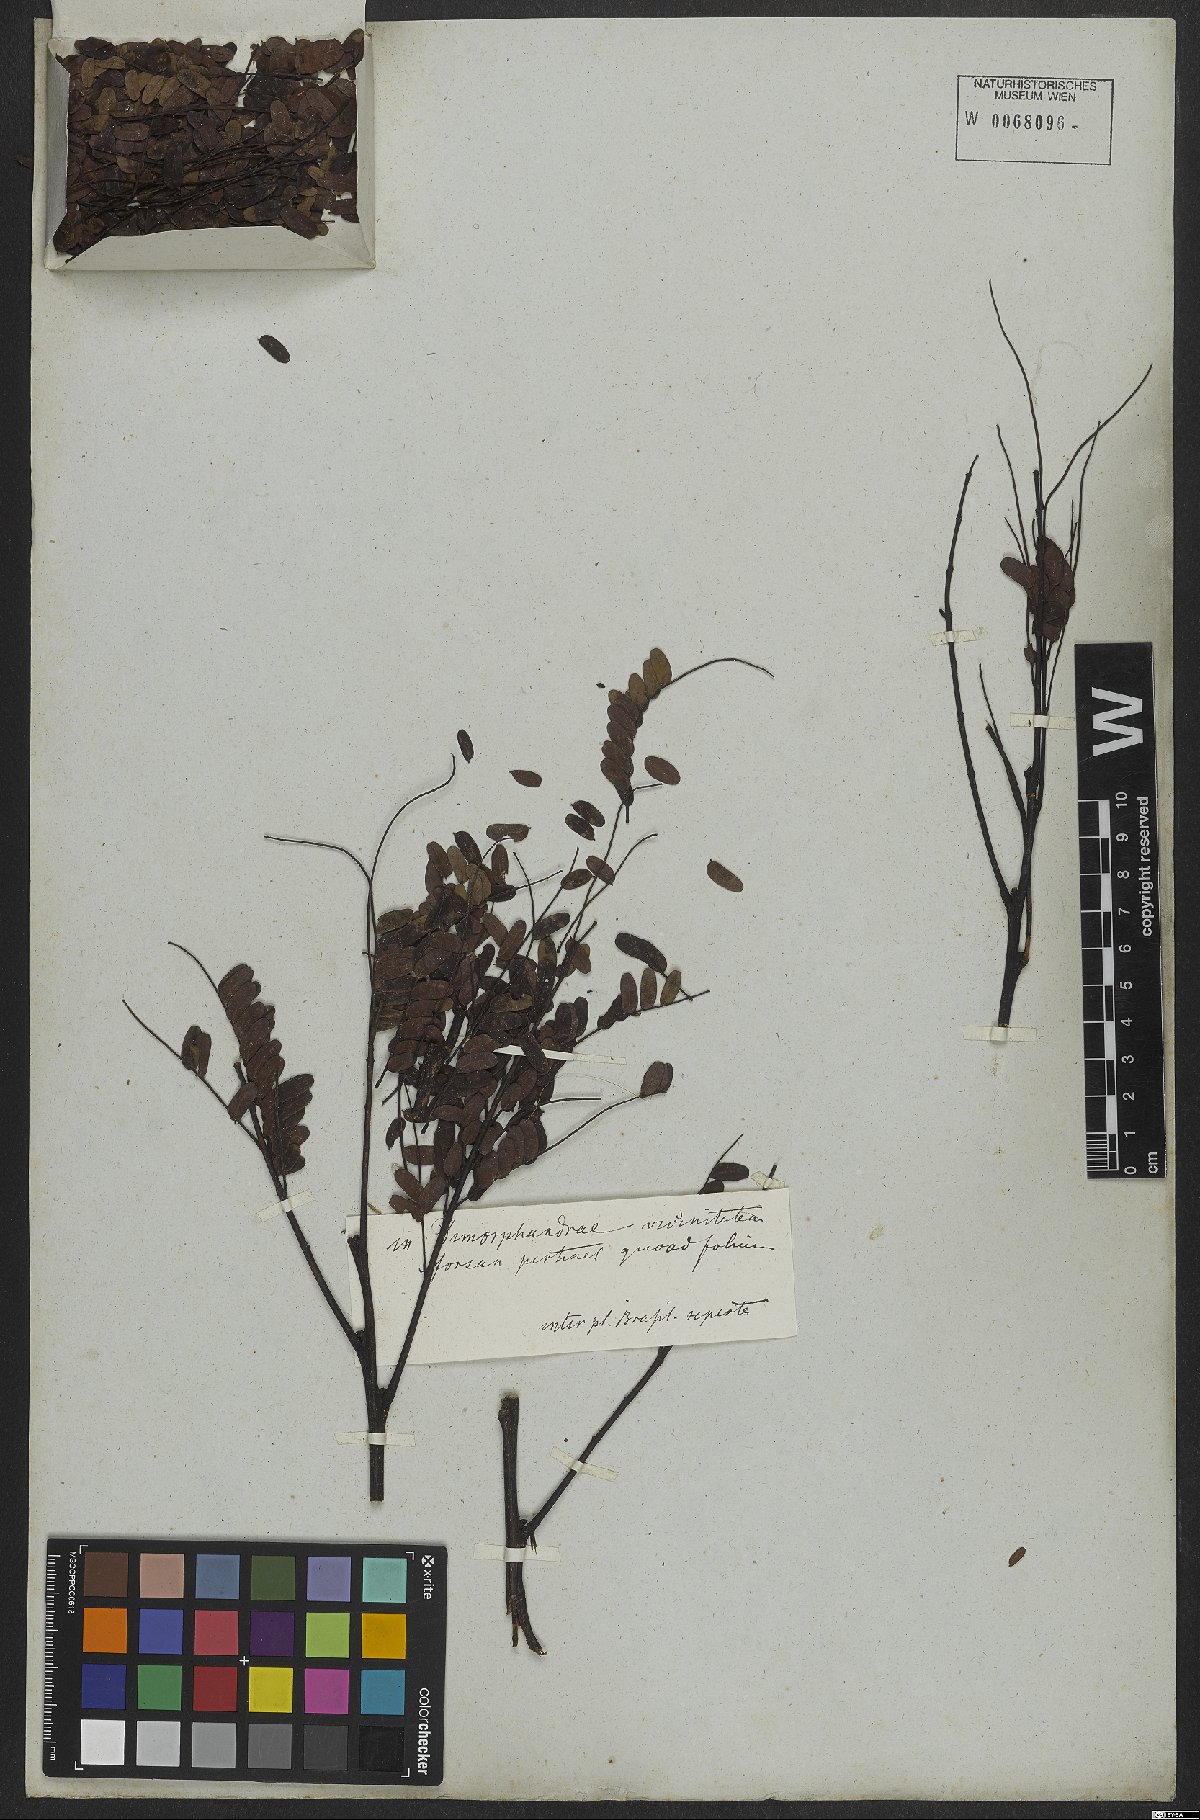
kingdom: Plantae
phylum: Tracheophyta
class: Magnoliopsida
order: Fabales
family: Fabaceae
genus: Plathymenia
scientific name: Plathymenia reticulata
